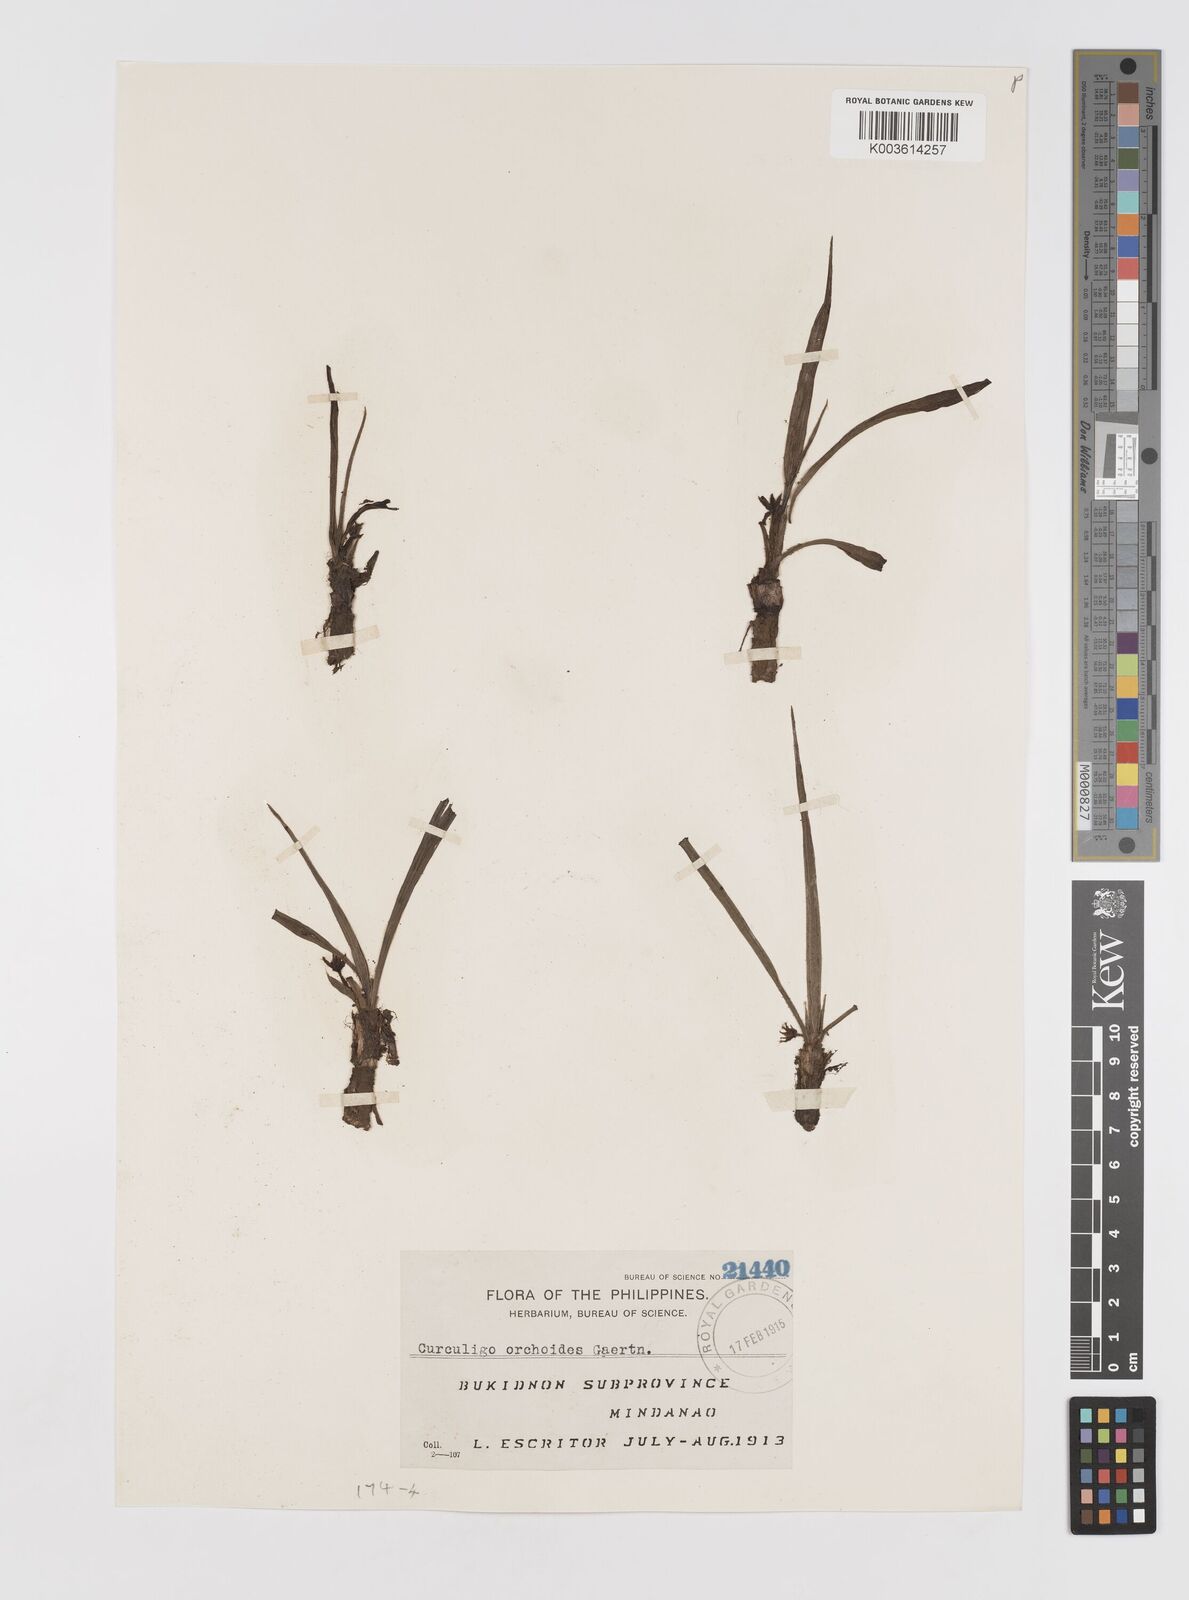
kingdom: Plantae
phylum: Tracheophyta
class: Liliopsida
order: Asparagales
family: Hypoxidaceae
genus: Curculigo
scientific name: Curculigo orchioides
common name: Golden eye-grass
